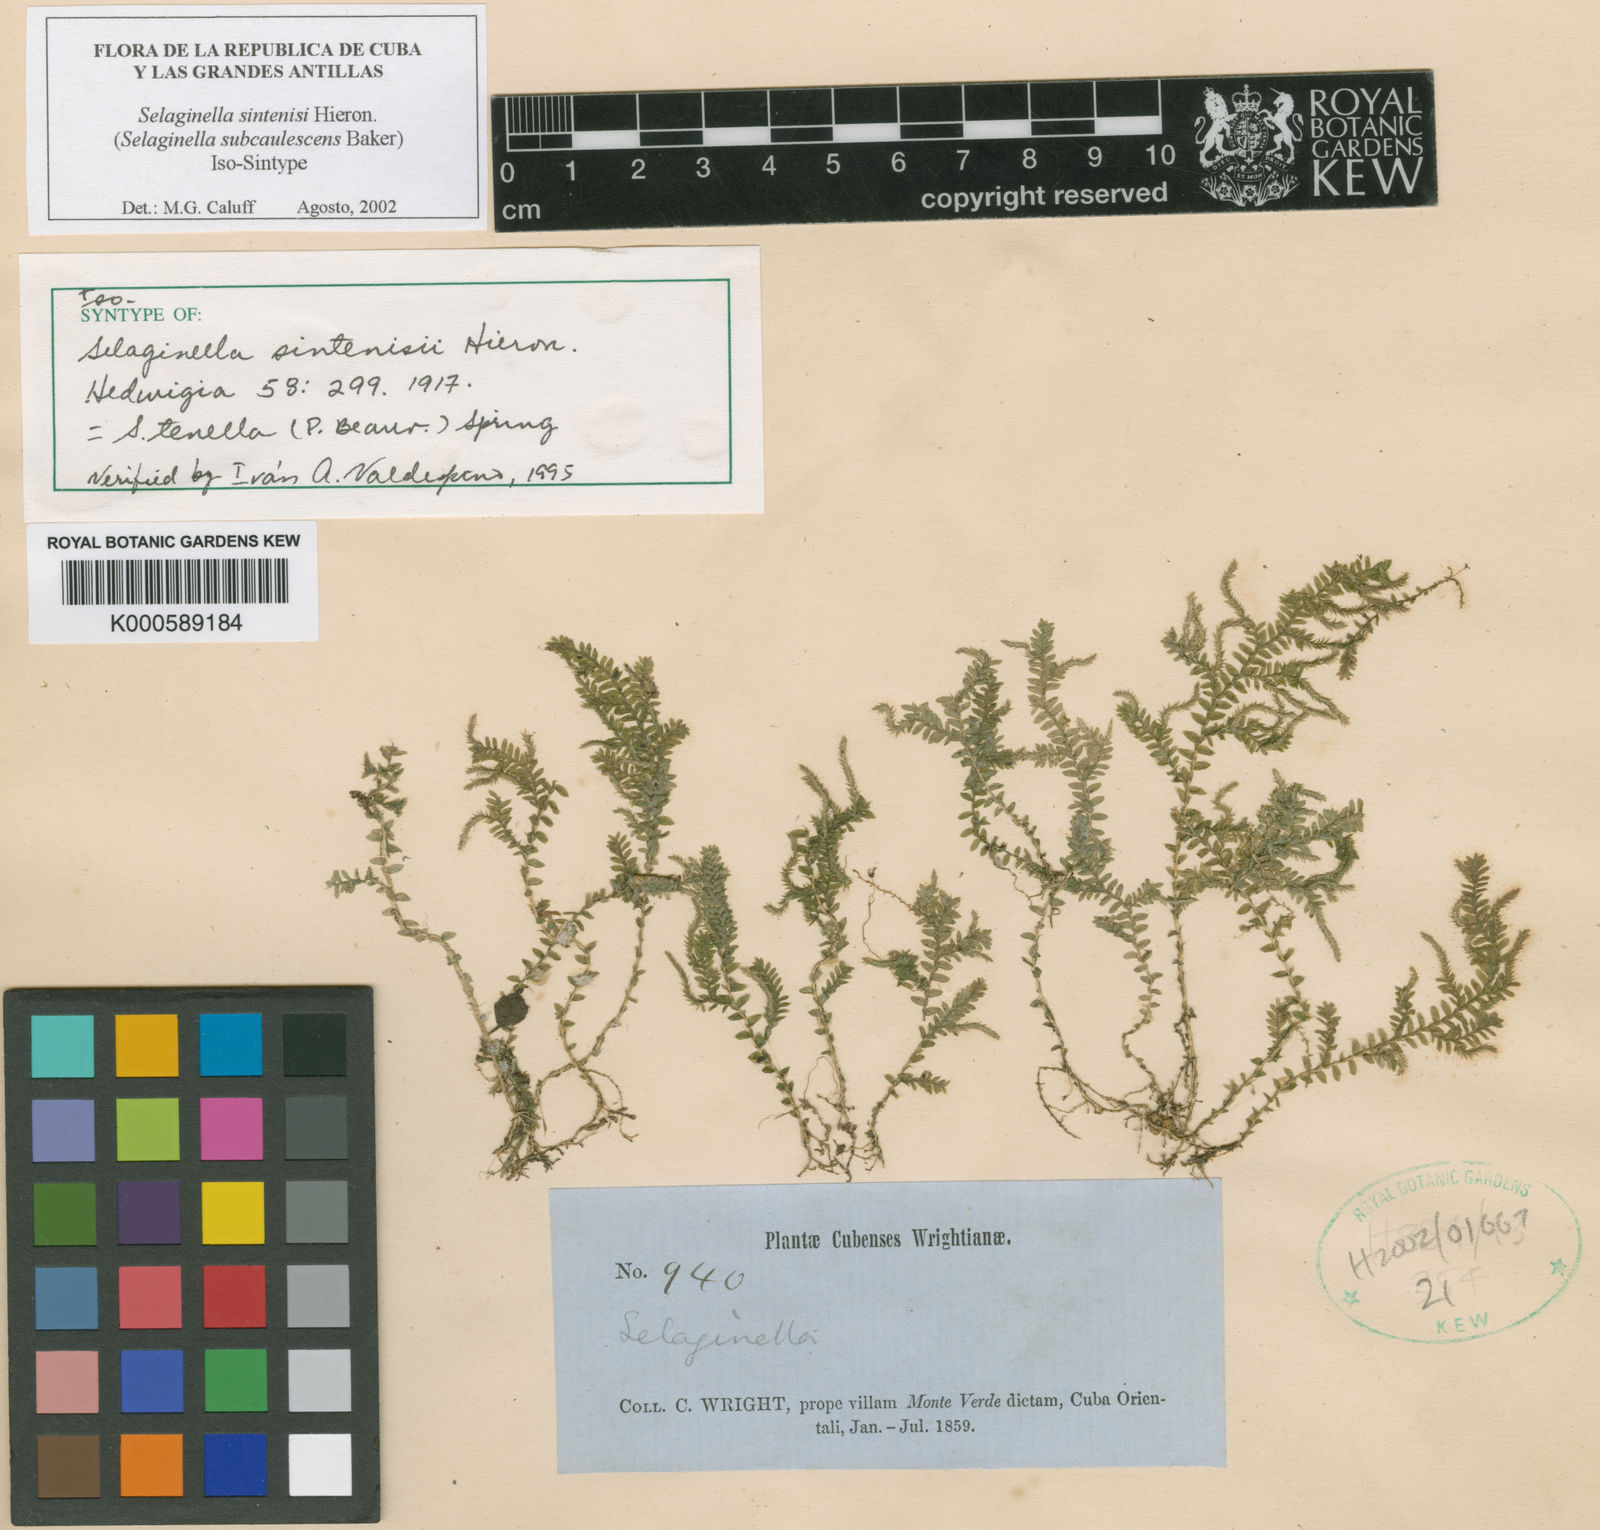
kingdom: Plantae
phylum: Tracheophyta
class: Lycopodiopsida
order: Selaginellales
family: Selaginellaceae
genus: Selaginella
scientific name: Selaginella tenella
